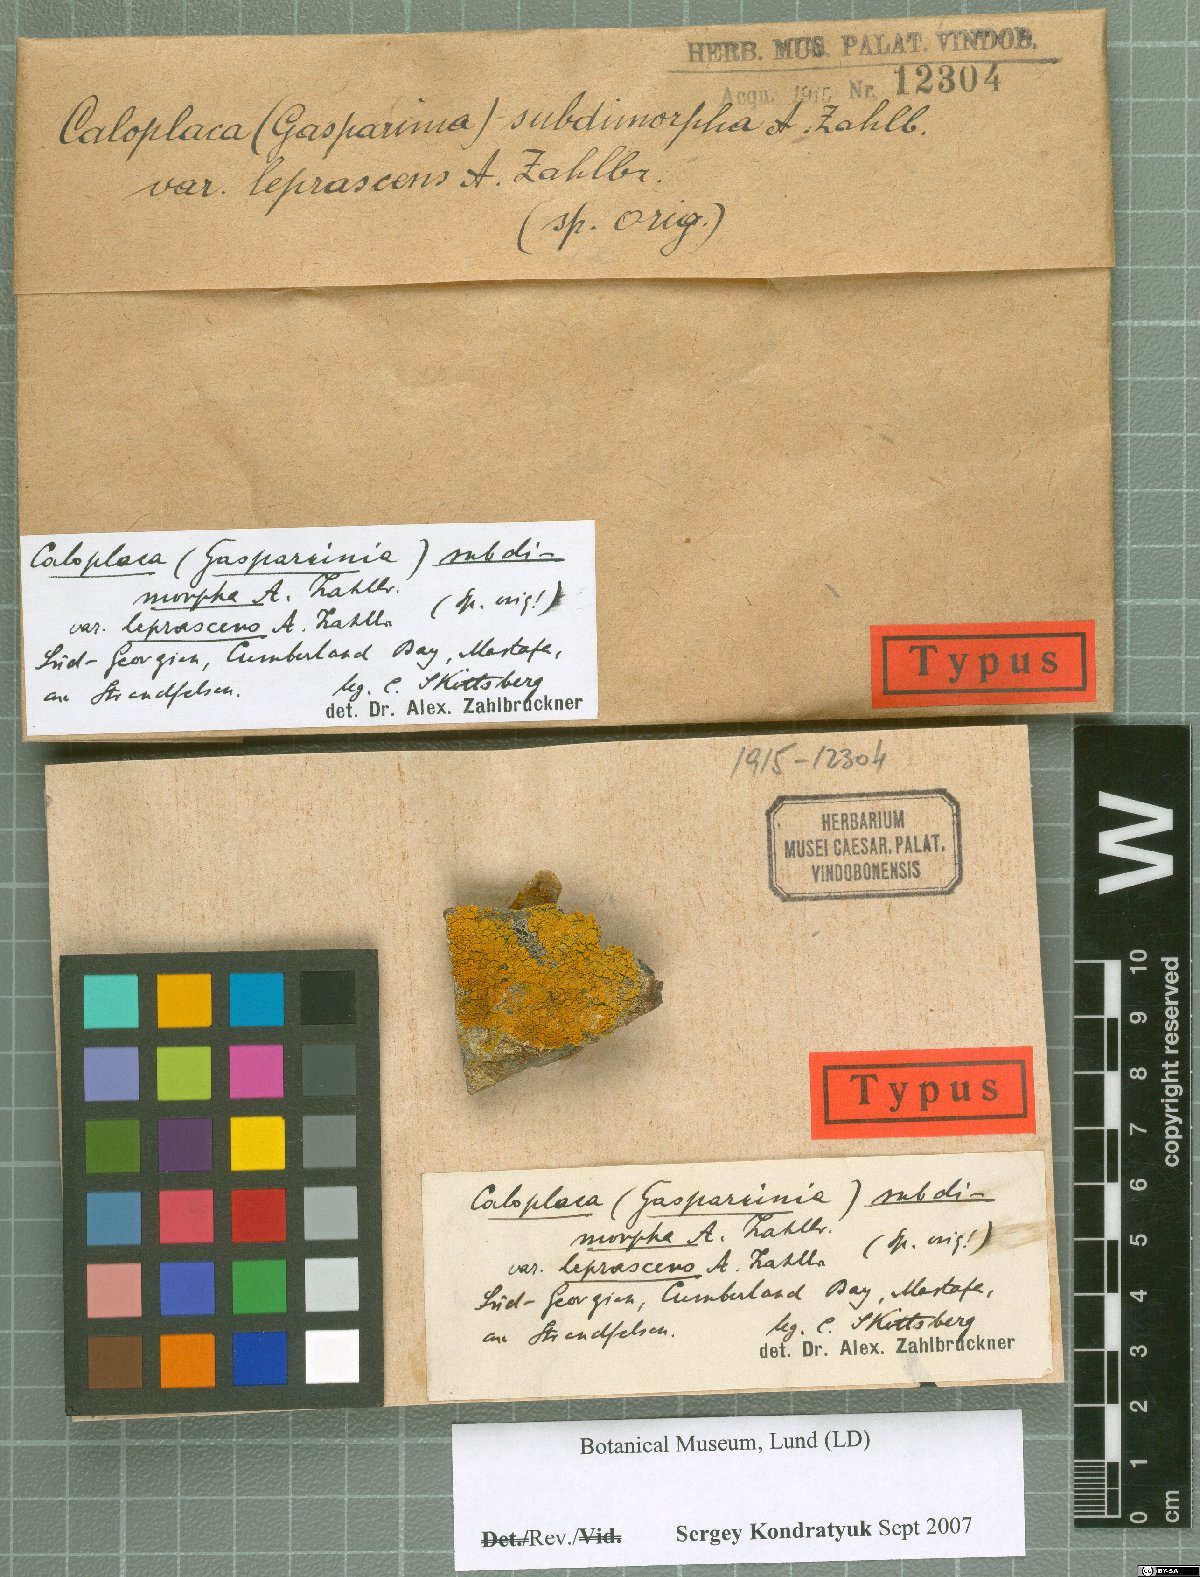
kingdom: Fungi
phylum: Ascomycota
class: Lecanoromycetes
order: Teloschistales
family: Teloschistaceae
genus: Caloplaca
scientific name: Caloplaca
